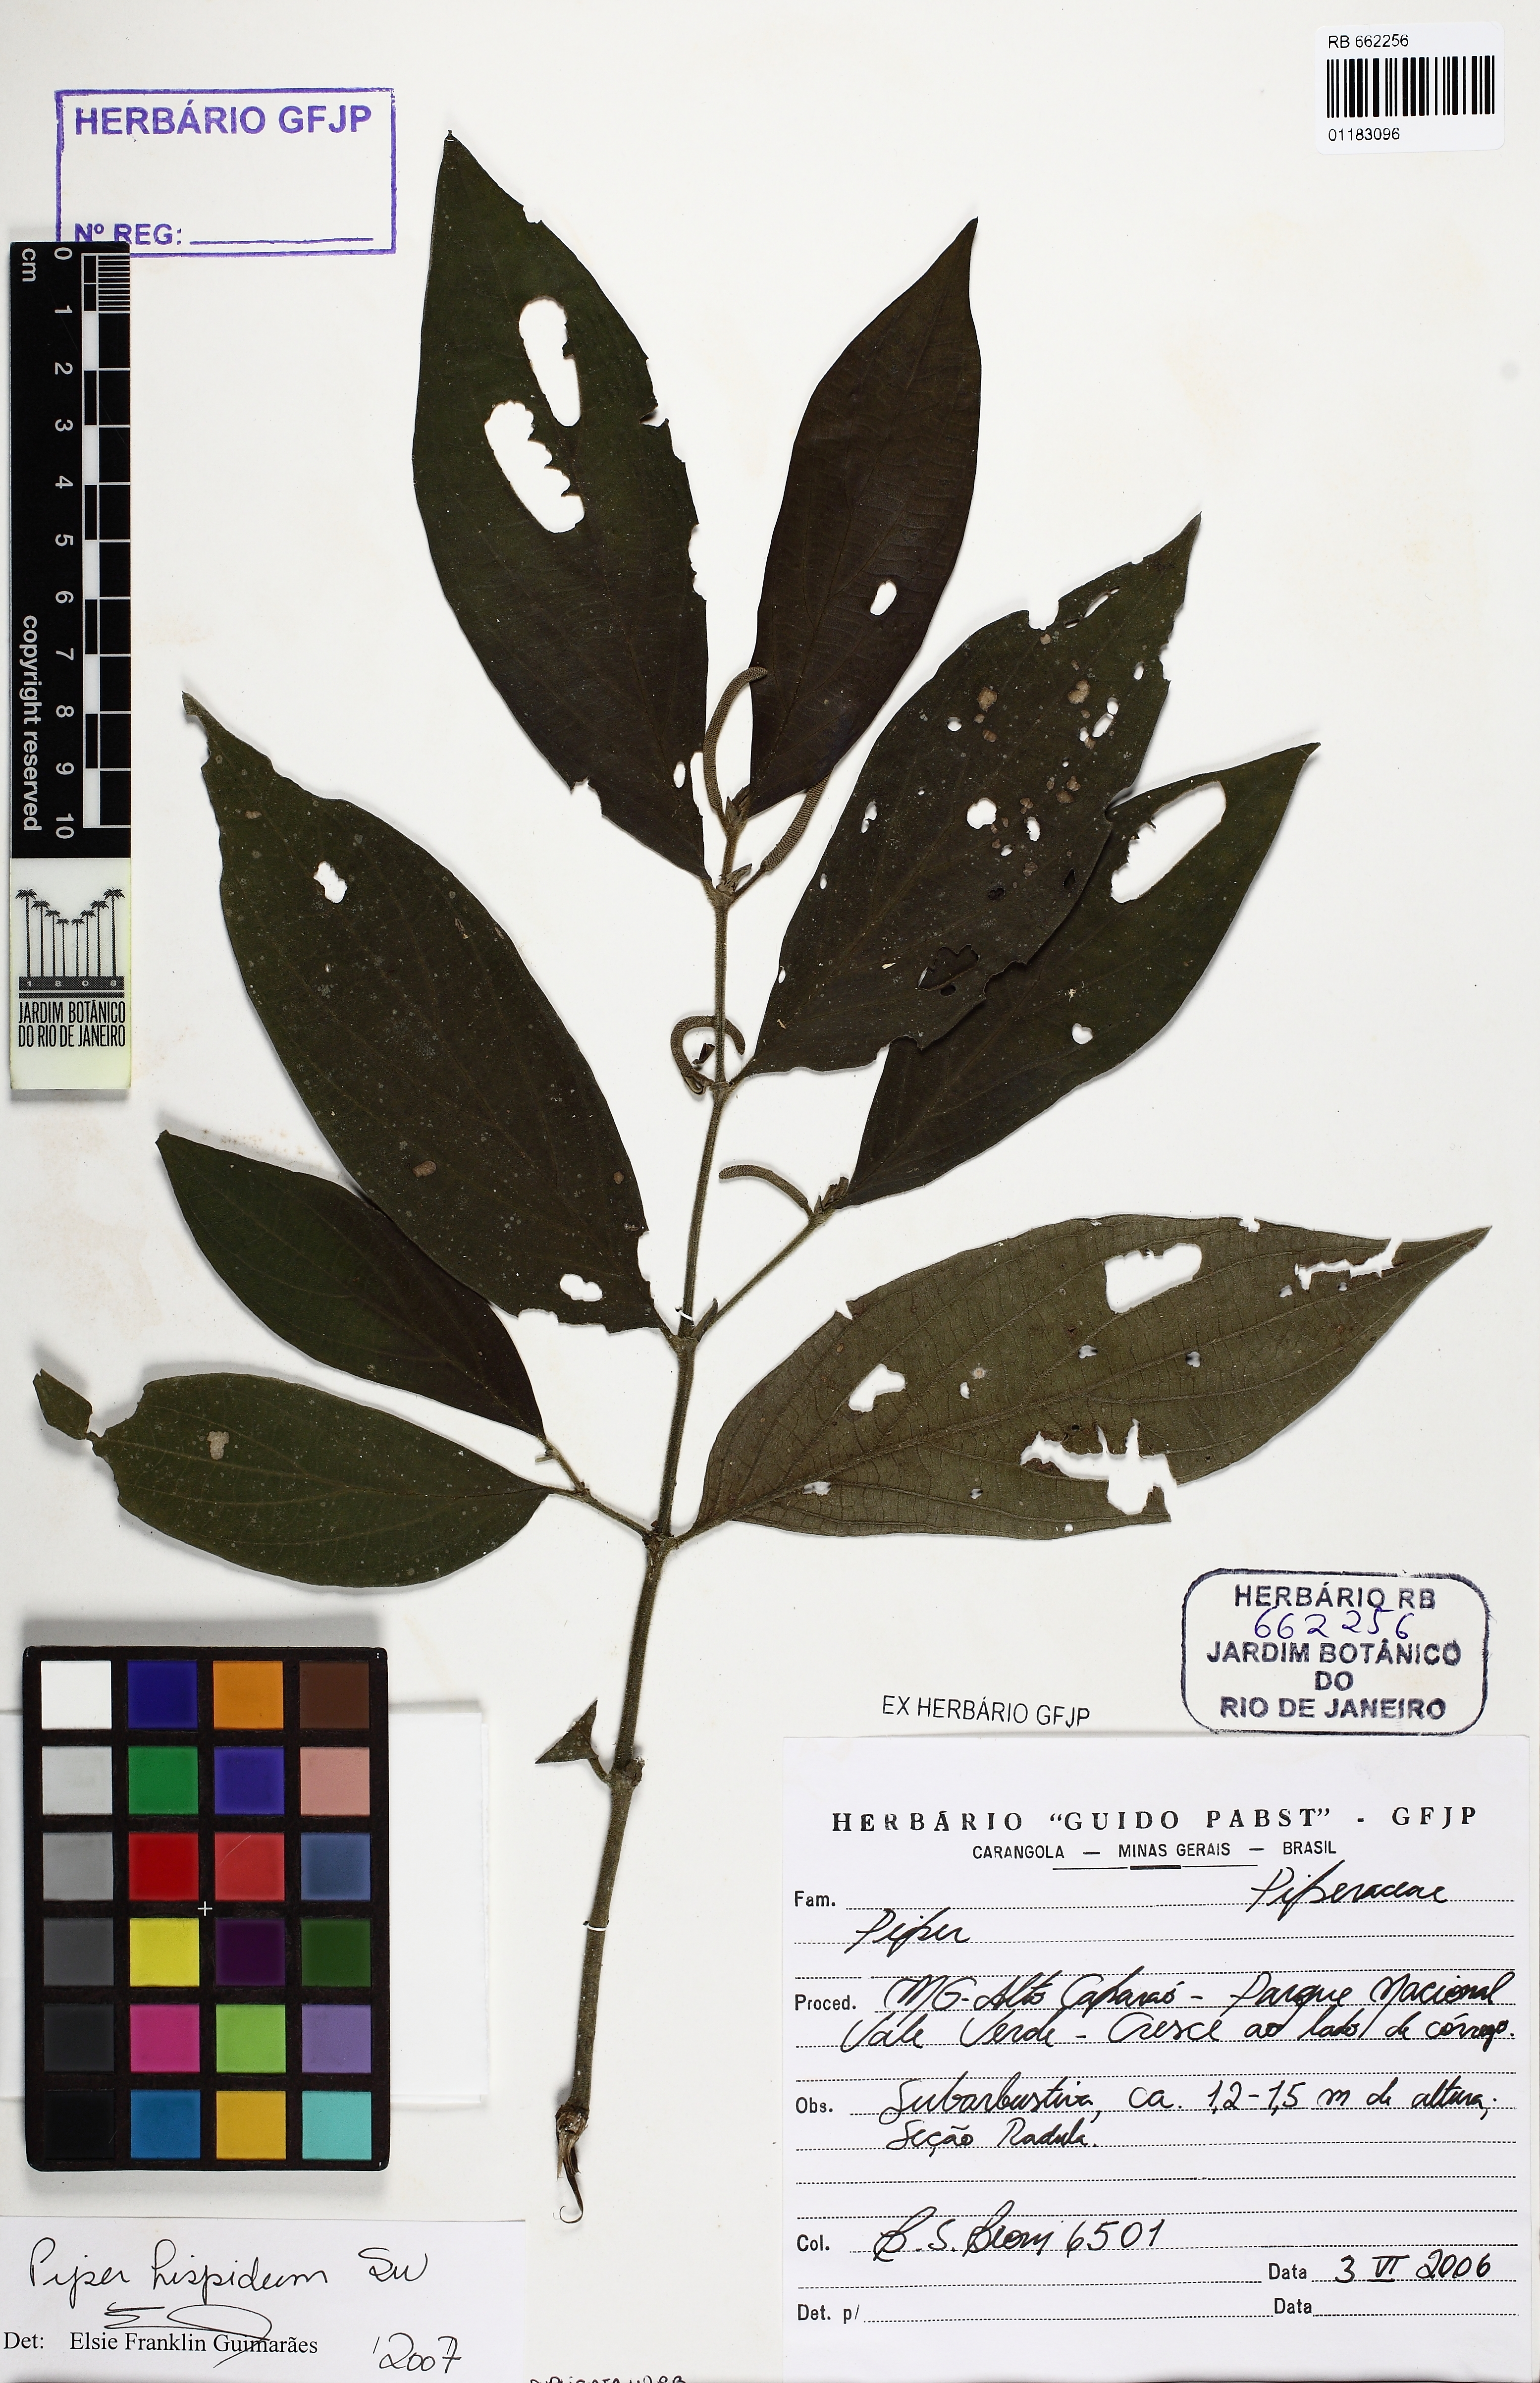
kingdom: Plantae
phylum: Tracheophyta
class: Magnoliopsida
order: Piperales
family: Piperaceae
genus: Piper
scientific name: Piper hispidum
